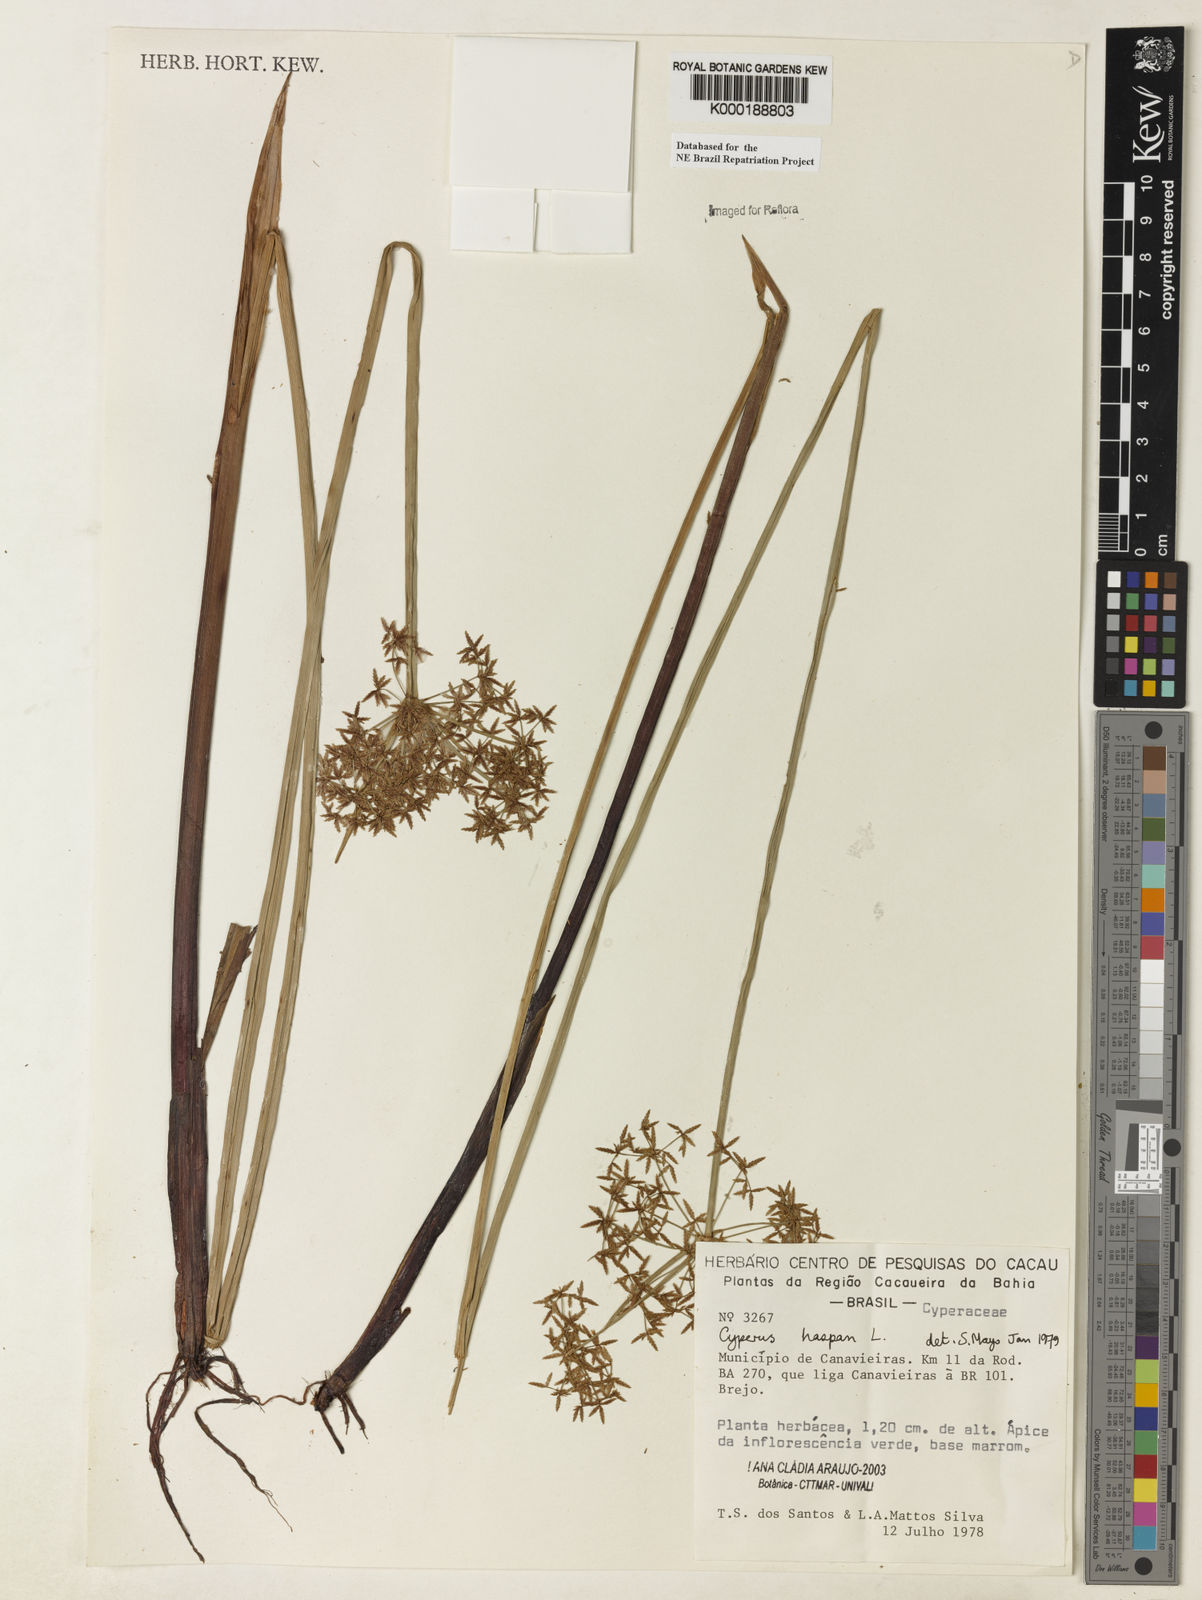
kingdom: Plantae
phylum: Tracheophyta
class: Liliopsida
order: Poales
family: Cyperaceae
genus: Cyperus
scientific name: Cyperus haspan
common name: Haspan flatsedge
